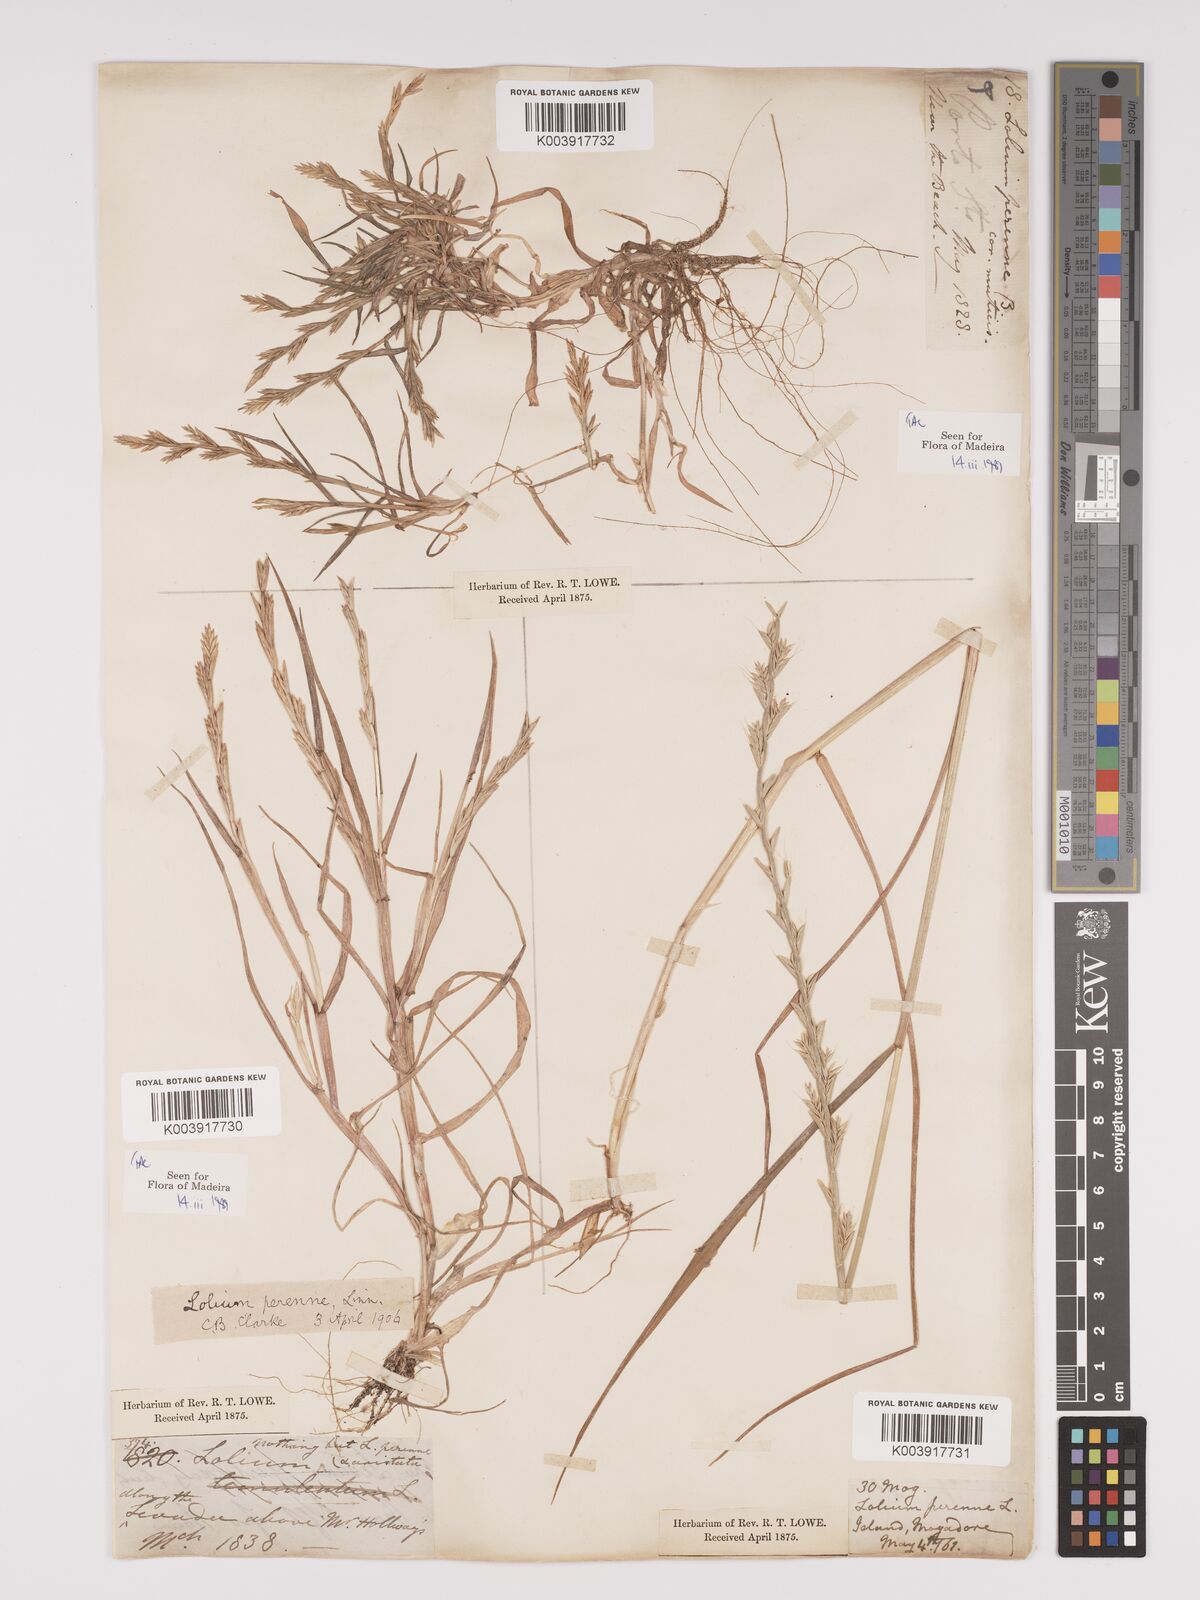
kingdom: Plantae
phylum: Tracheophyta
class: Liliopsida
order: Poales
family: Poaceae
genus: Lolium
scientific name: Lolium perenne
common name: Perennial ryegrass
